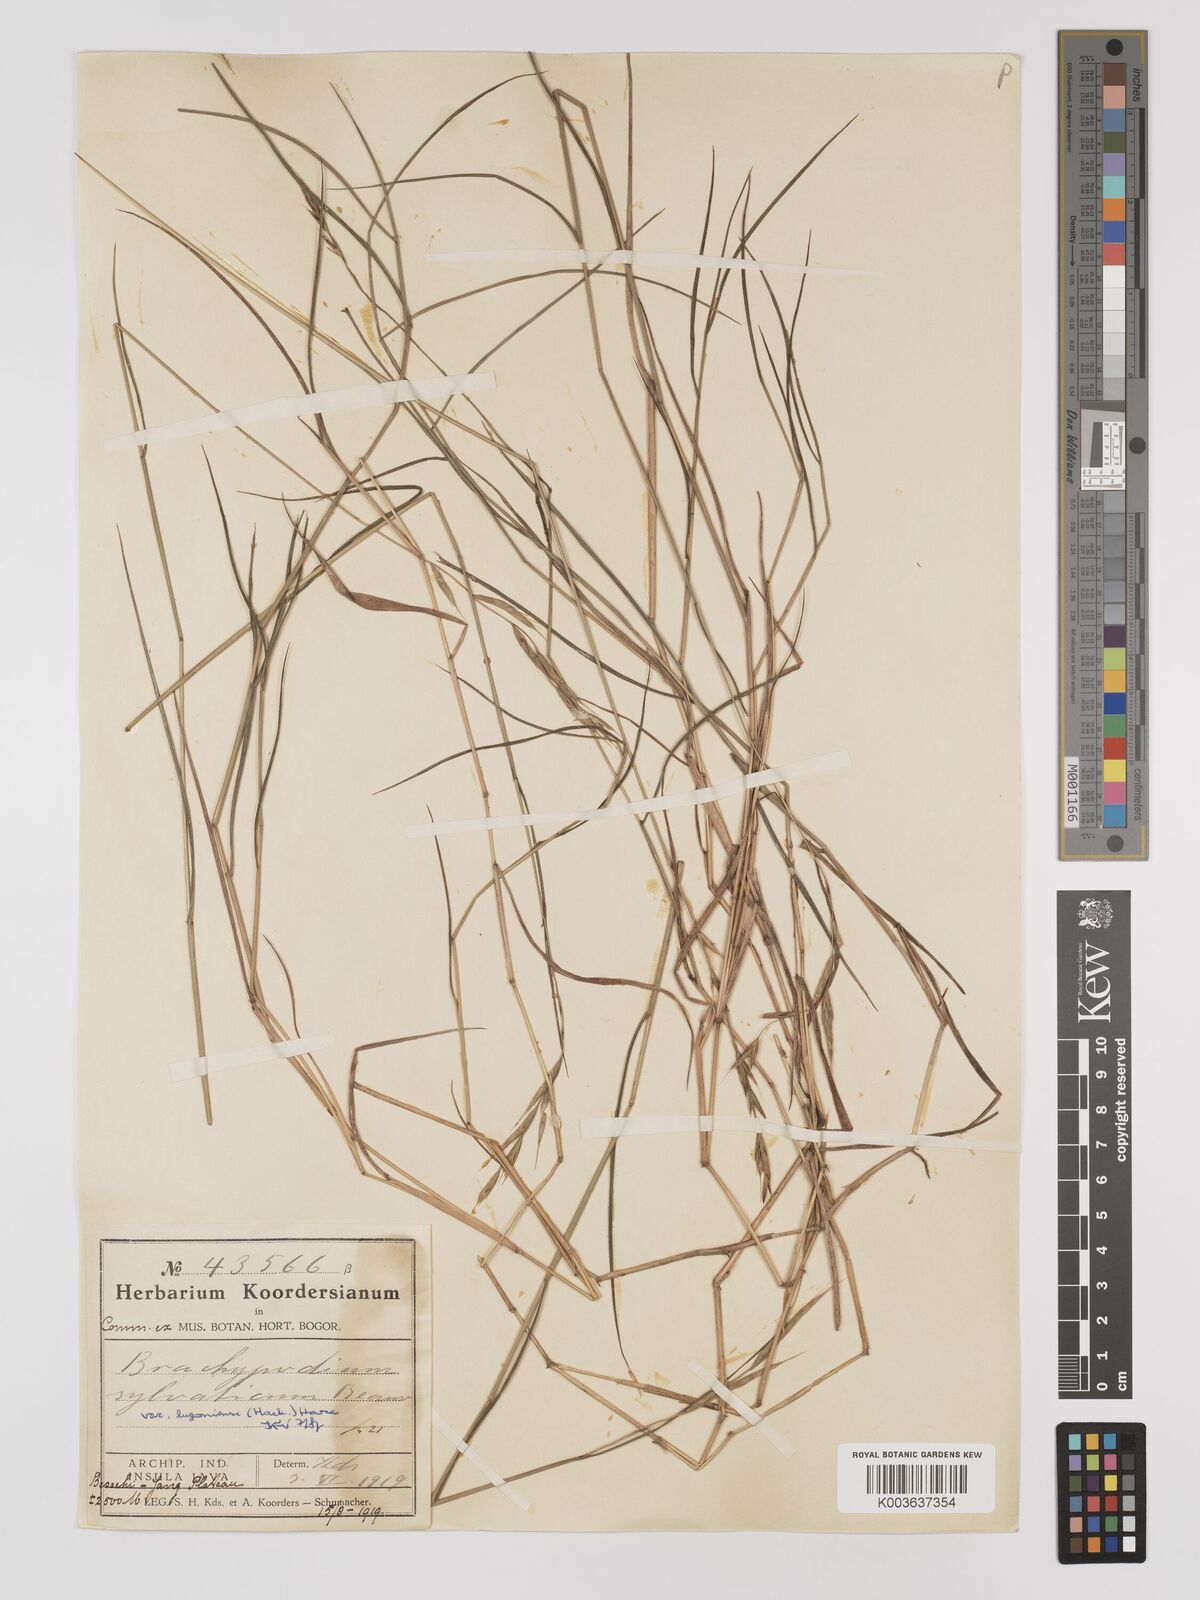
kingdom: Plantae
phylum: Tracheophyta
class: Liliopsida
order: Poales
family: Poaceae
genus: Brachypodium
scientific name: Brachypodium sylvaticum
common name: False-brome
